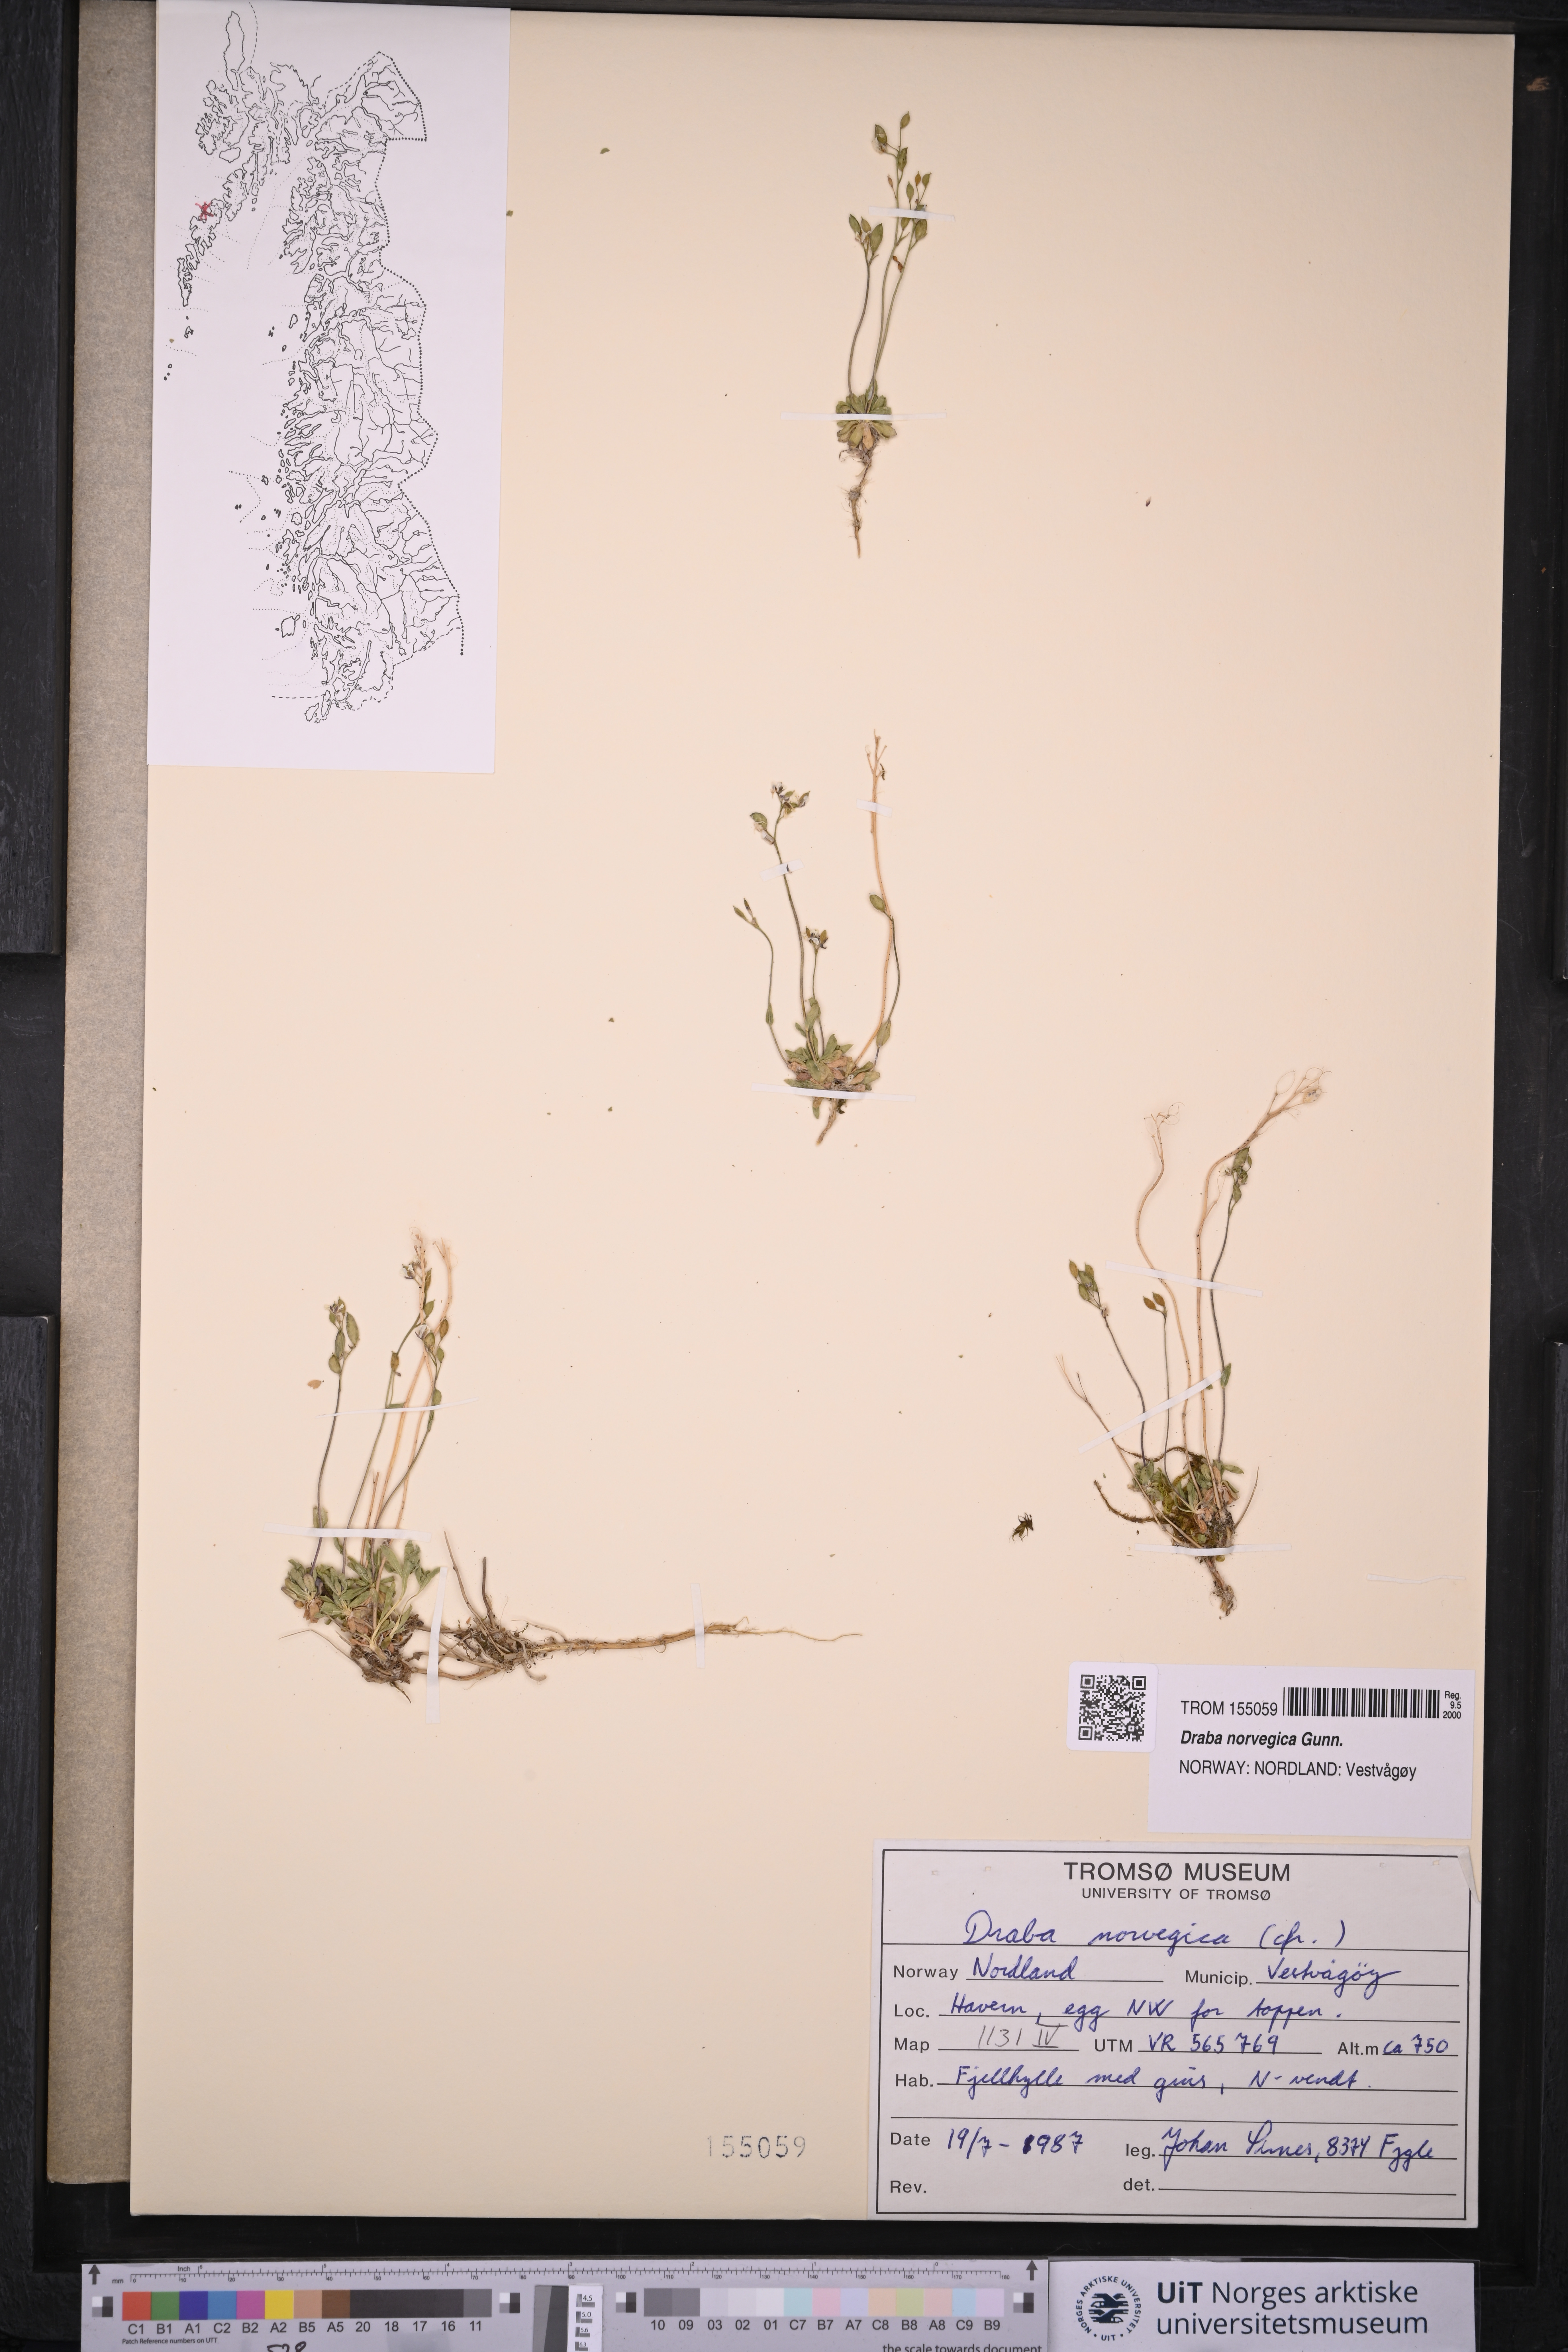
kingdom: Plantae
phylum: Tracheophyta
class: Magnoliopsida
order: Brassicales
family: Brassicaceae
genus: Draba
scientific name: Draba norvegica
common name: Rock whitlowgrass
